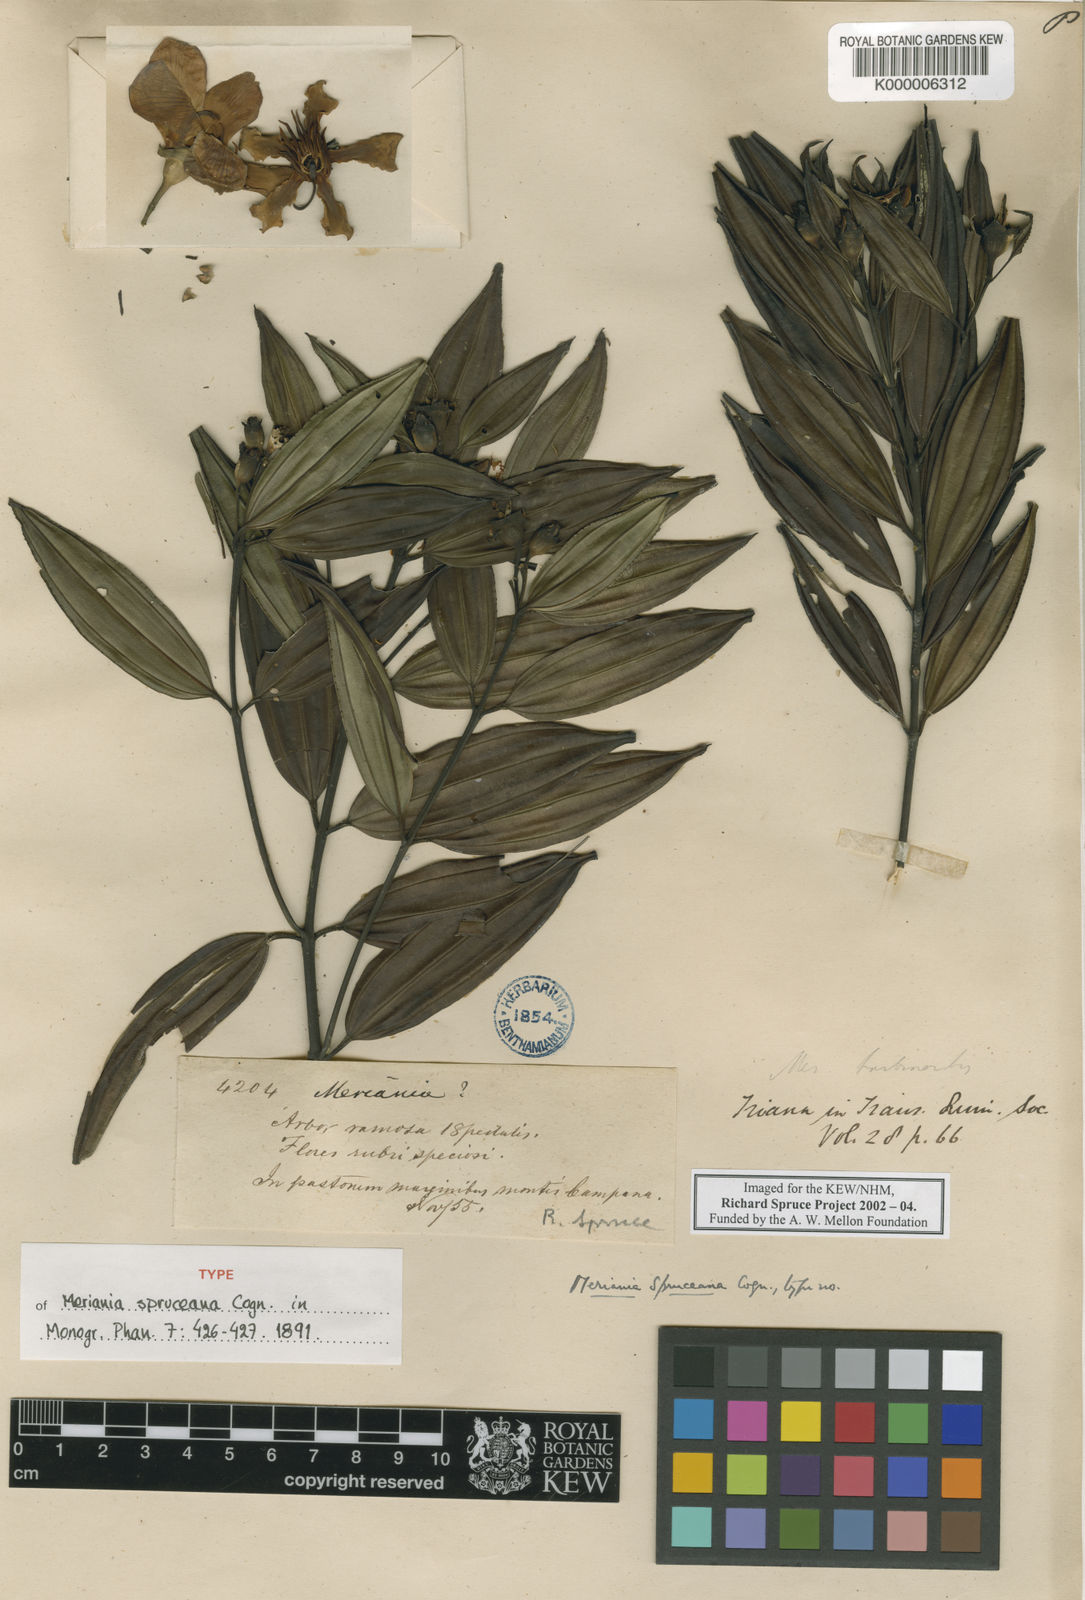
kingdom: Plantae
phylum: Tracheophyta
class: Magnoliopsida
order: Myrtales
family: Melastomataceae
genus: Meriania
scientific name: Meriania speciosa
